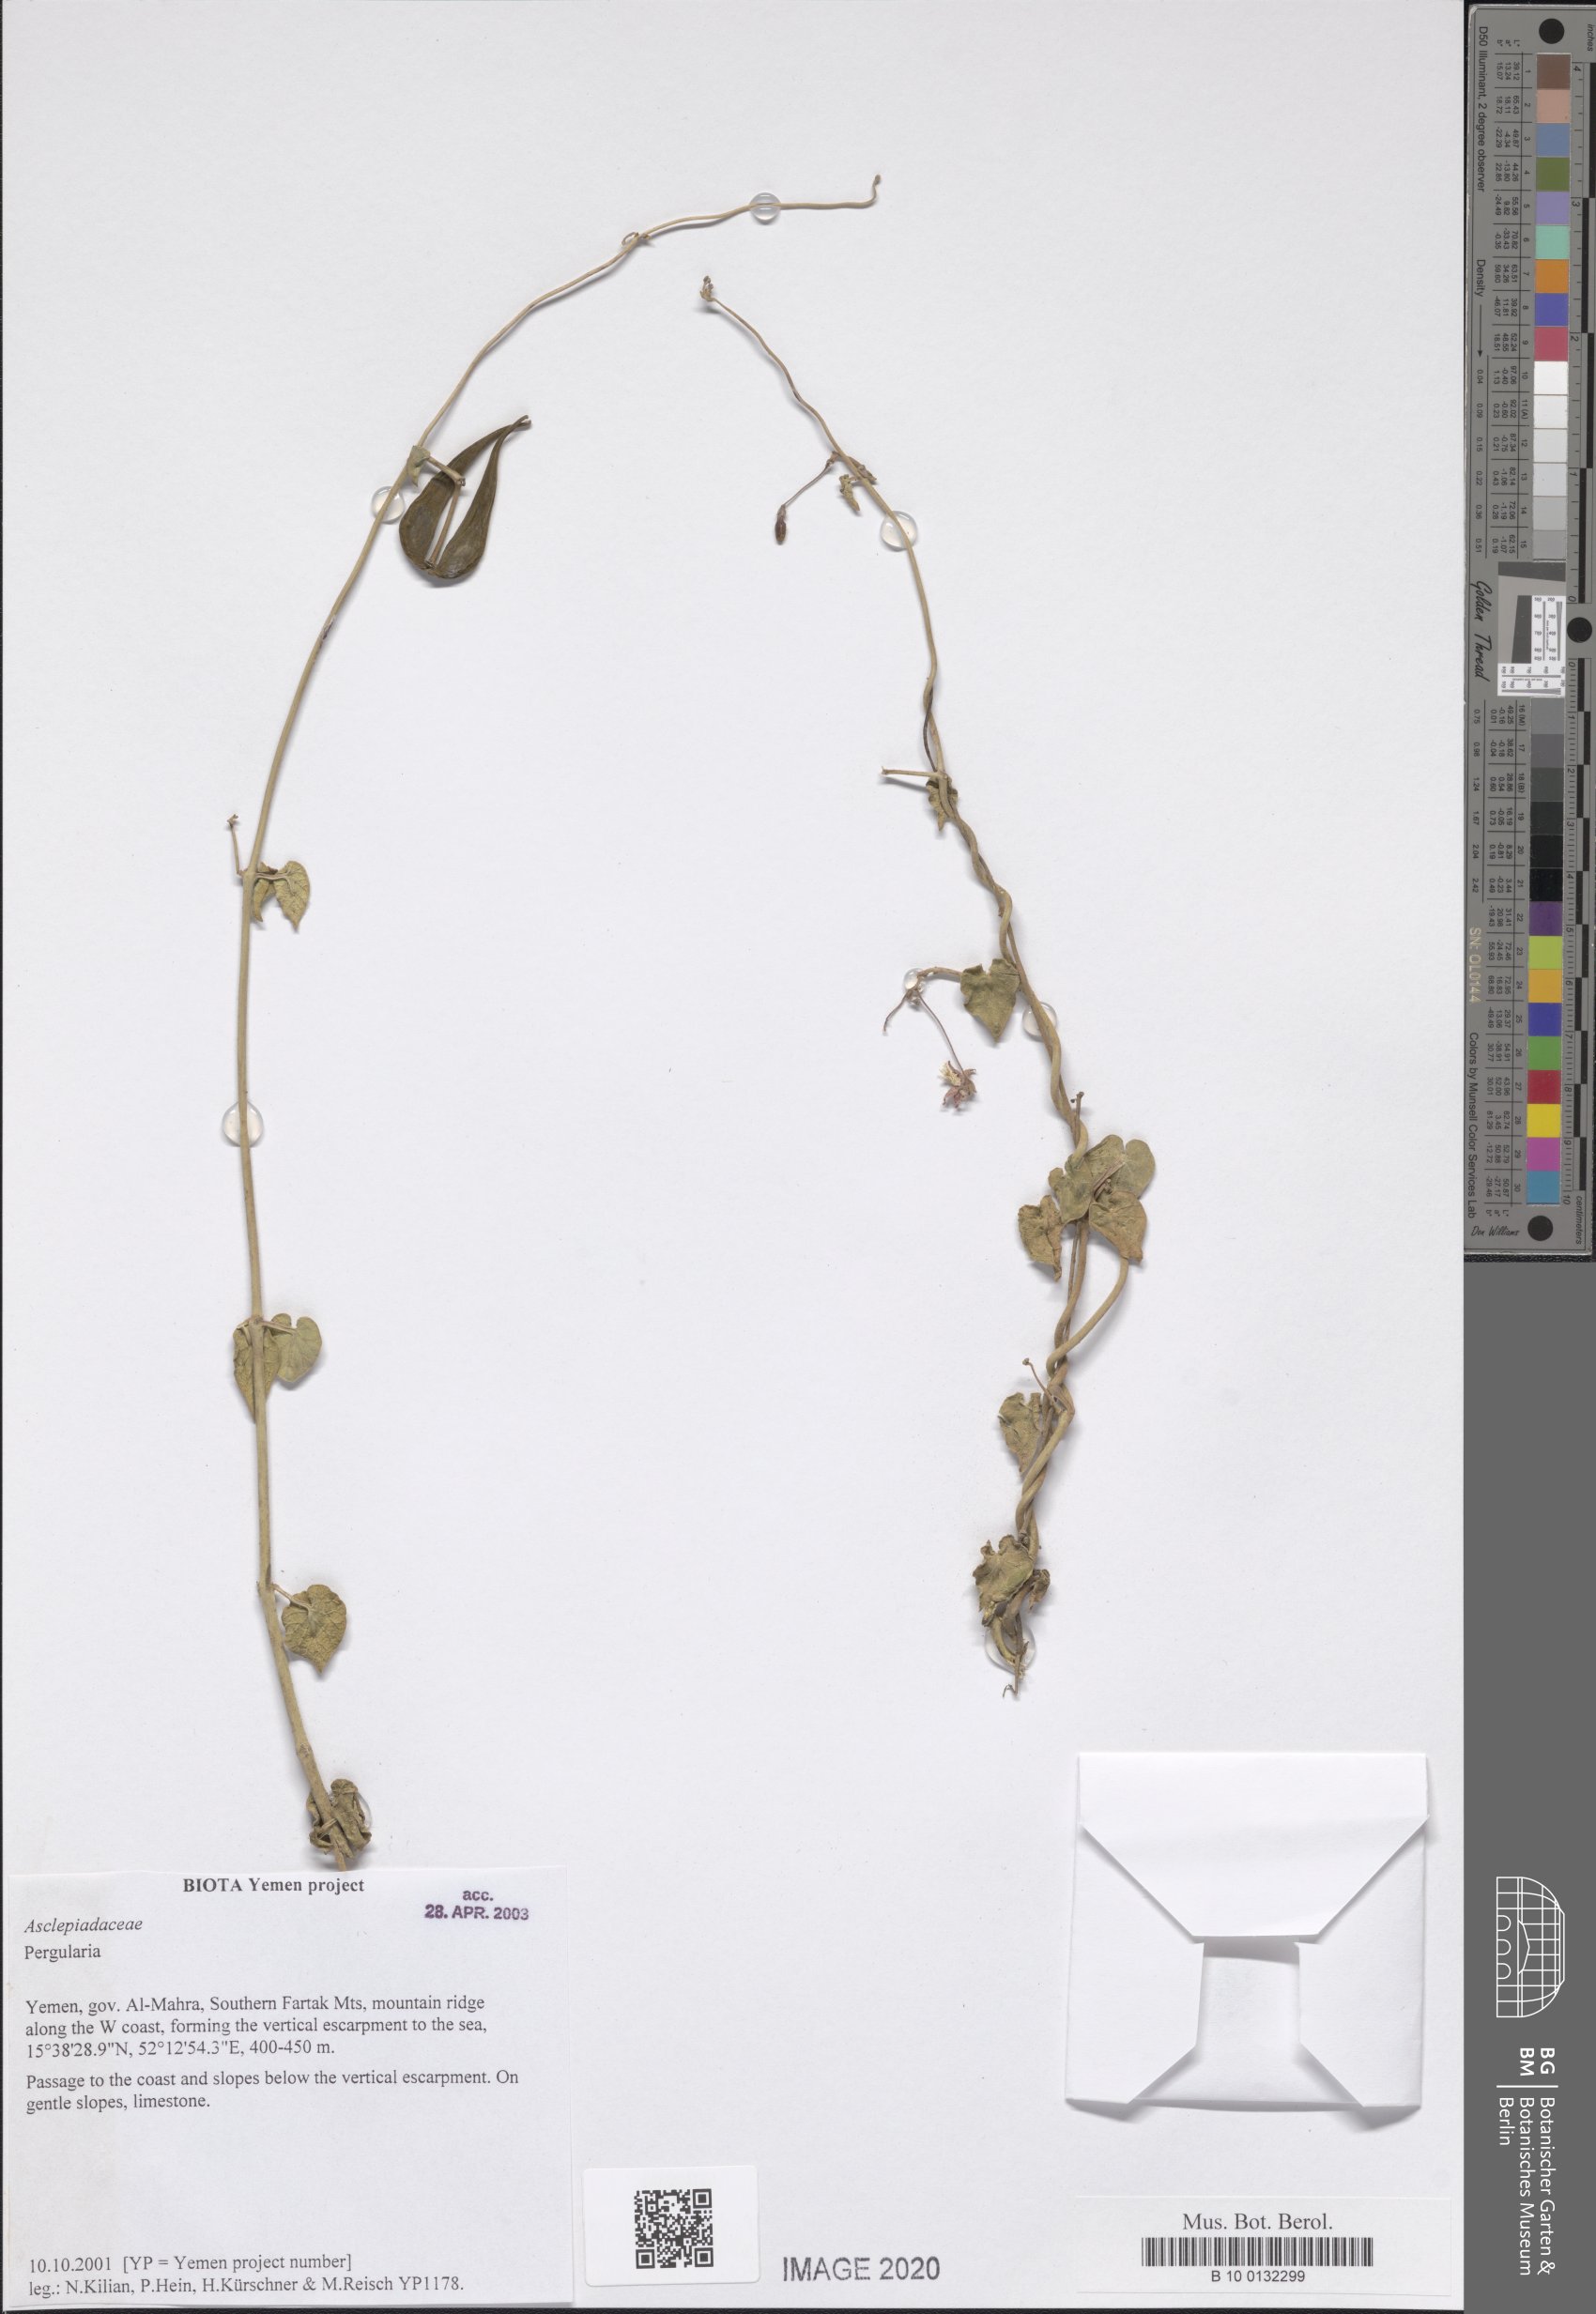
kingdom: Plantae
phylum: Tracheophyta
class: Magnoliopsida
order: Gentianales
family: Apocynaceae
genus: Pergularia
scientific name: Pergularia tomentosa
